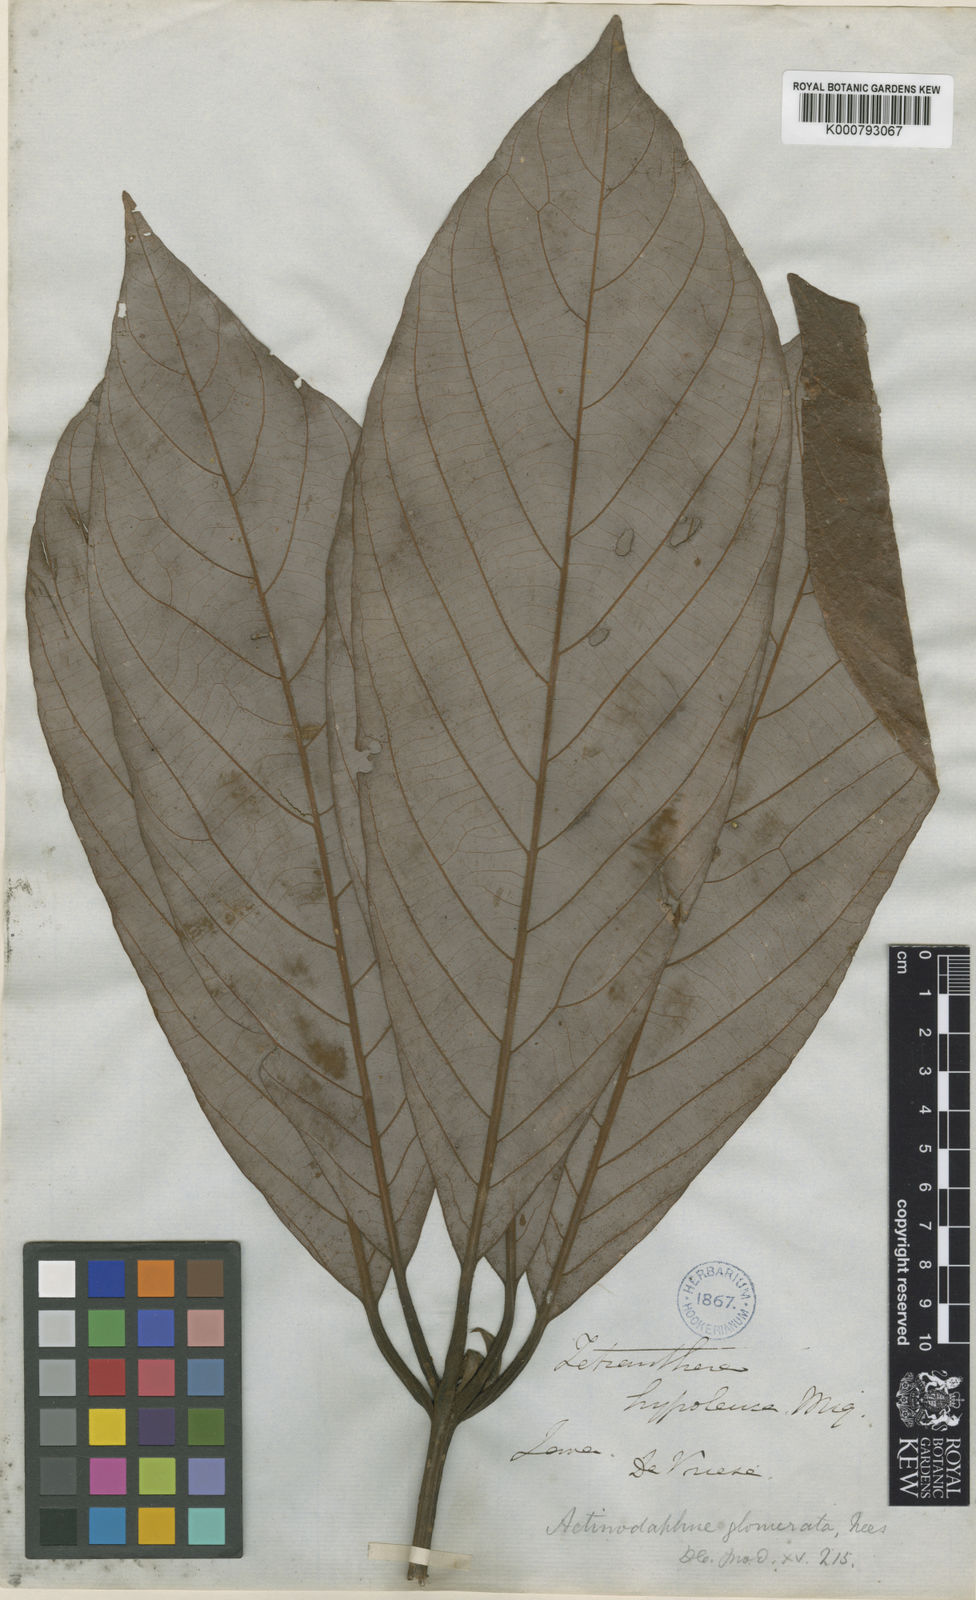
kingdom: Plantae
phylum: Tracheophyta
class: Magnoliopsida
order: Laurales
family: Lauraceae
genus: Actinodaphne
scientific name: Actinodaphne glomerata
